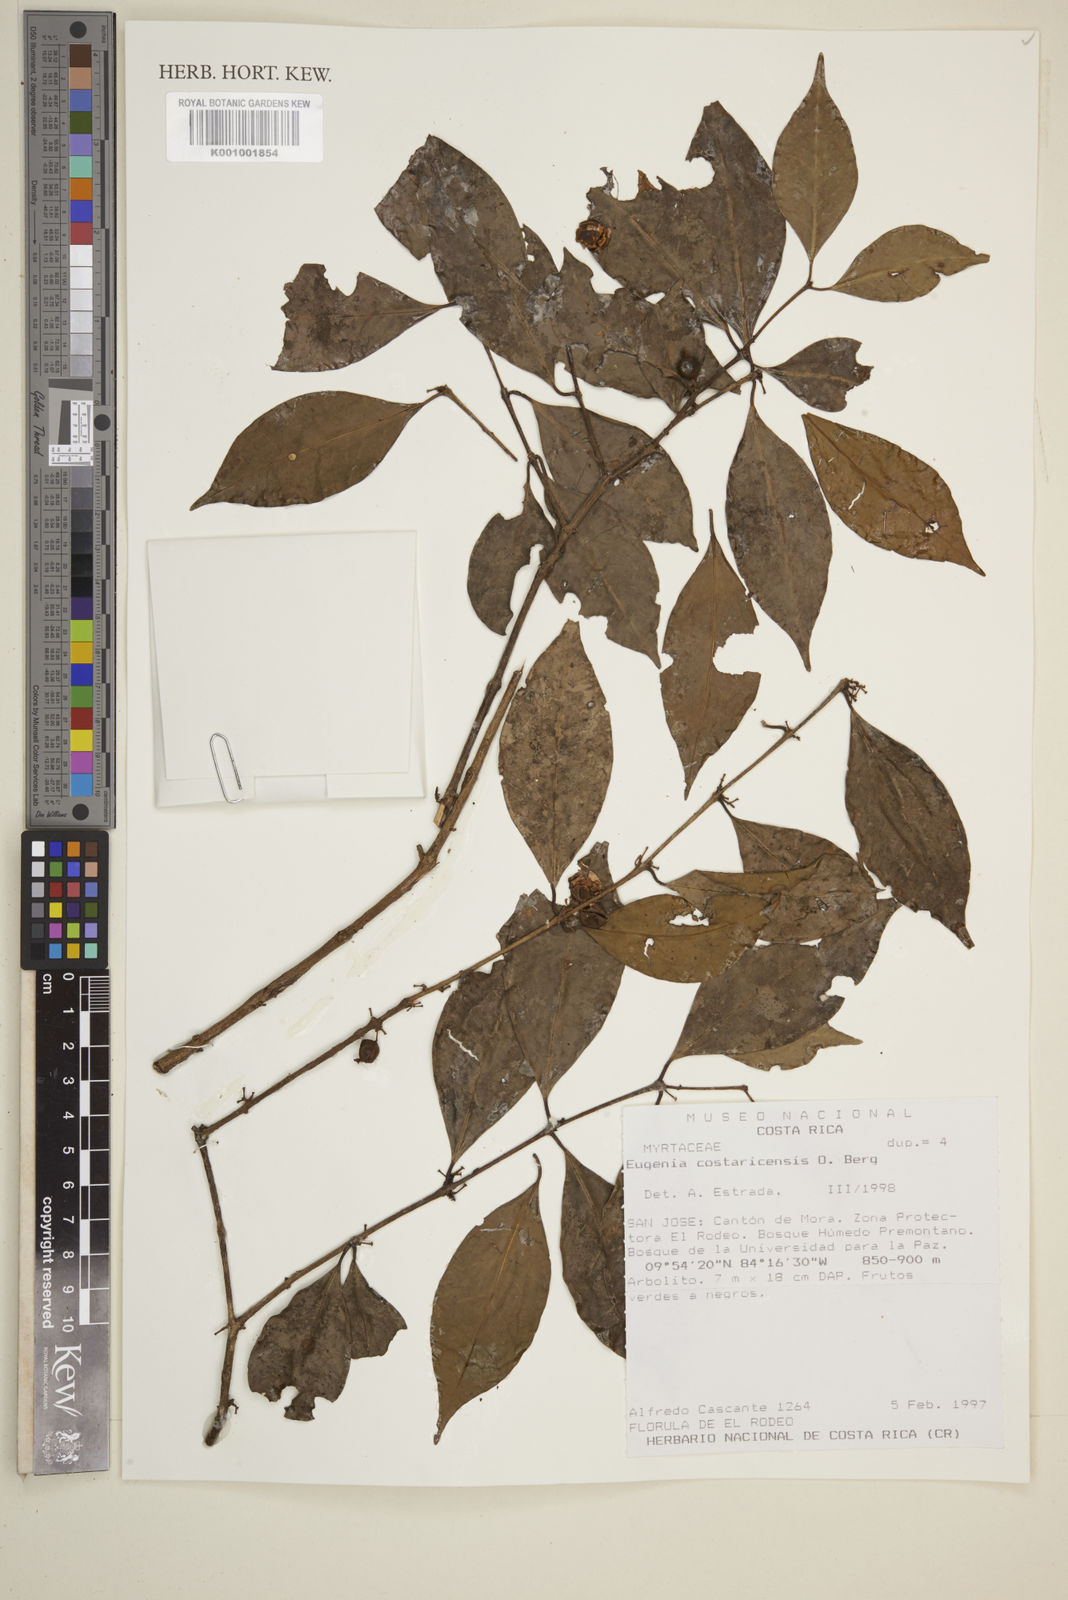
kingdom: Plantae
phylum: Tracheophyta
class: Magnoliopsida
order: Myrtales
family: Myrtaceae
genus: Eugenia
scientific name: Eugenia costaricensis
